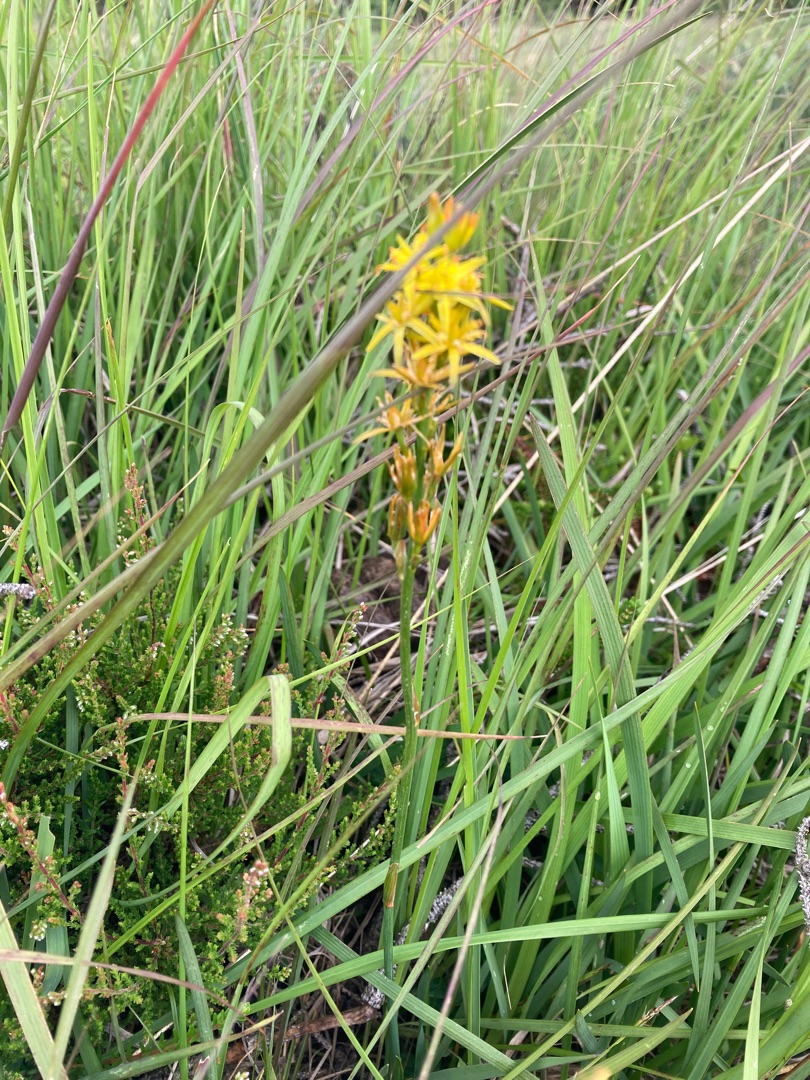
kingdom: Plantae
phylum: Tracheophyta
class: Liliopsida
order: Dioscoreales
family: Nartheciaceae
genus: Narthecium
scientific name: Narthecium ossifragum
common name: Benbræk
